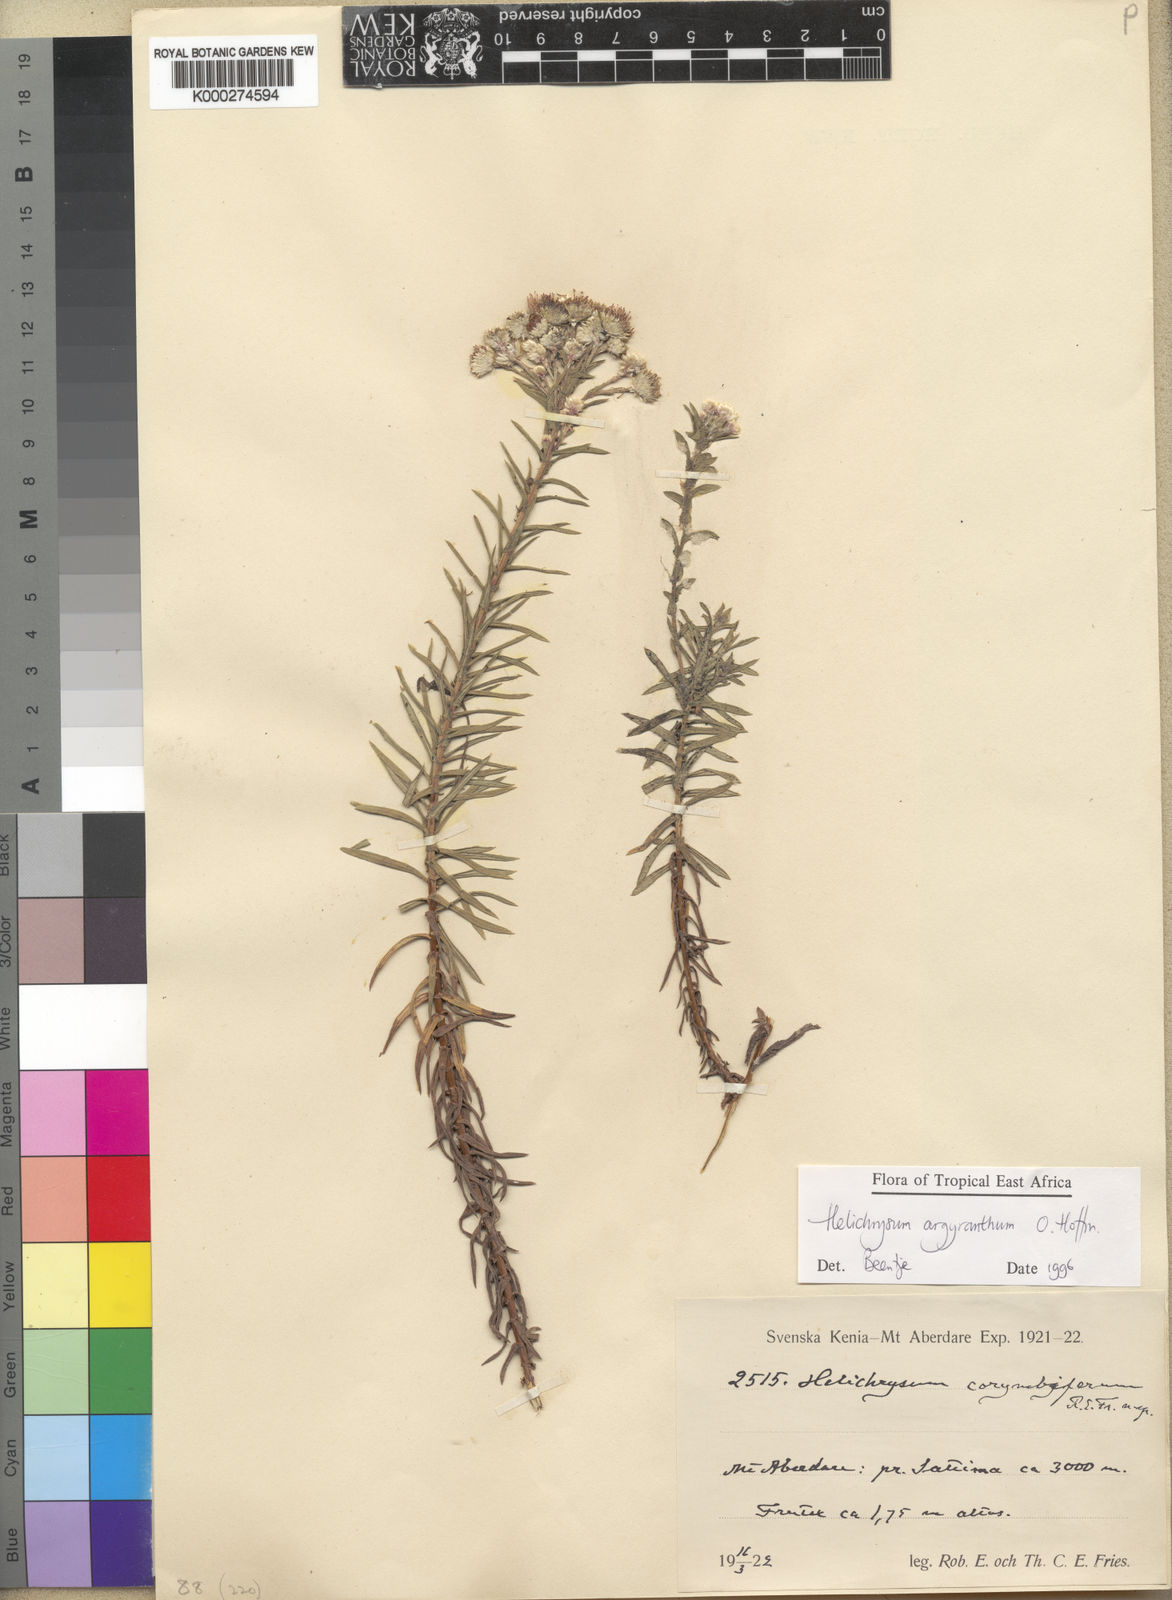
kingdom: Plantae
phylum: Tracheophyta
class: Magnoliopsida
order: Asterales
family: Asteraceae
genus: Helichrysum
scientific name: Helichrysum argyranthum
